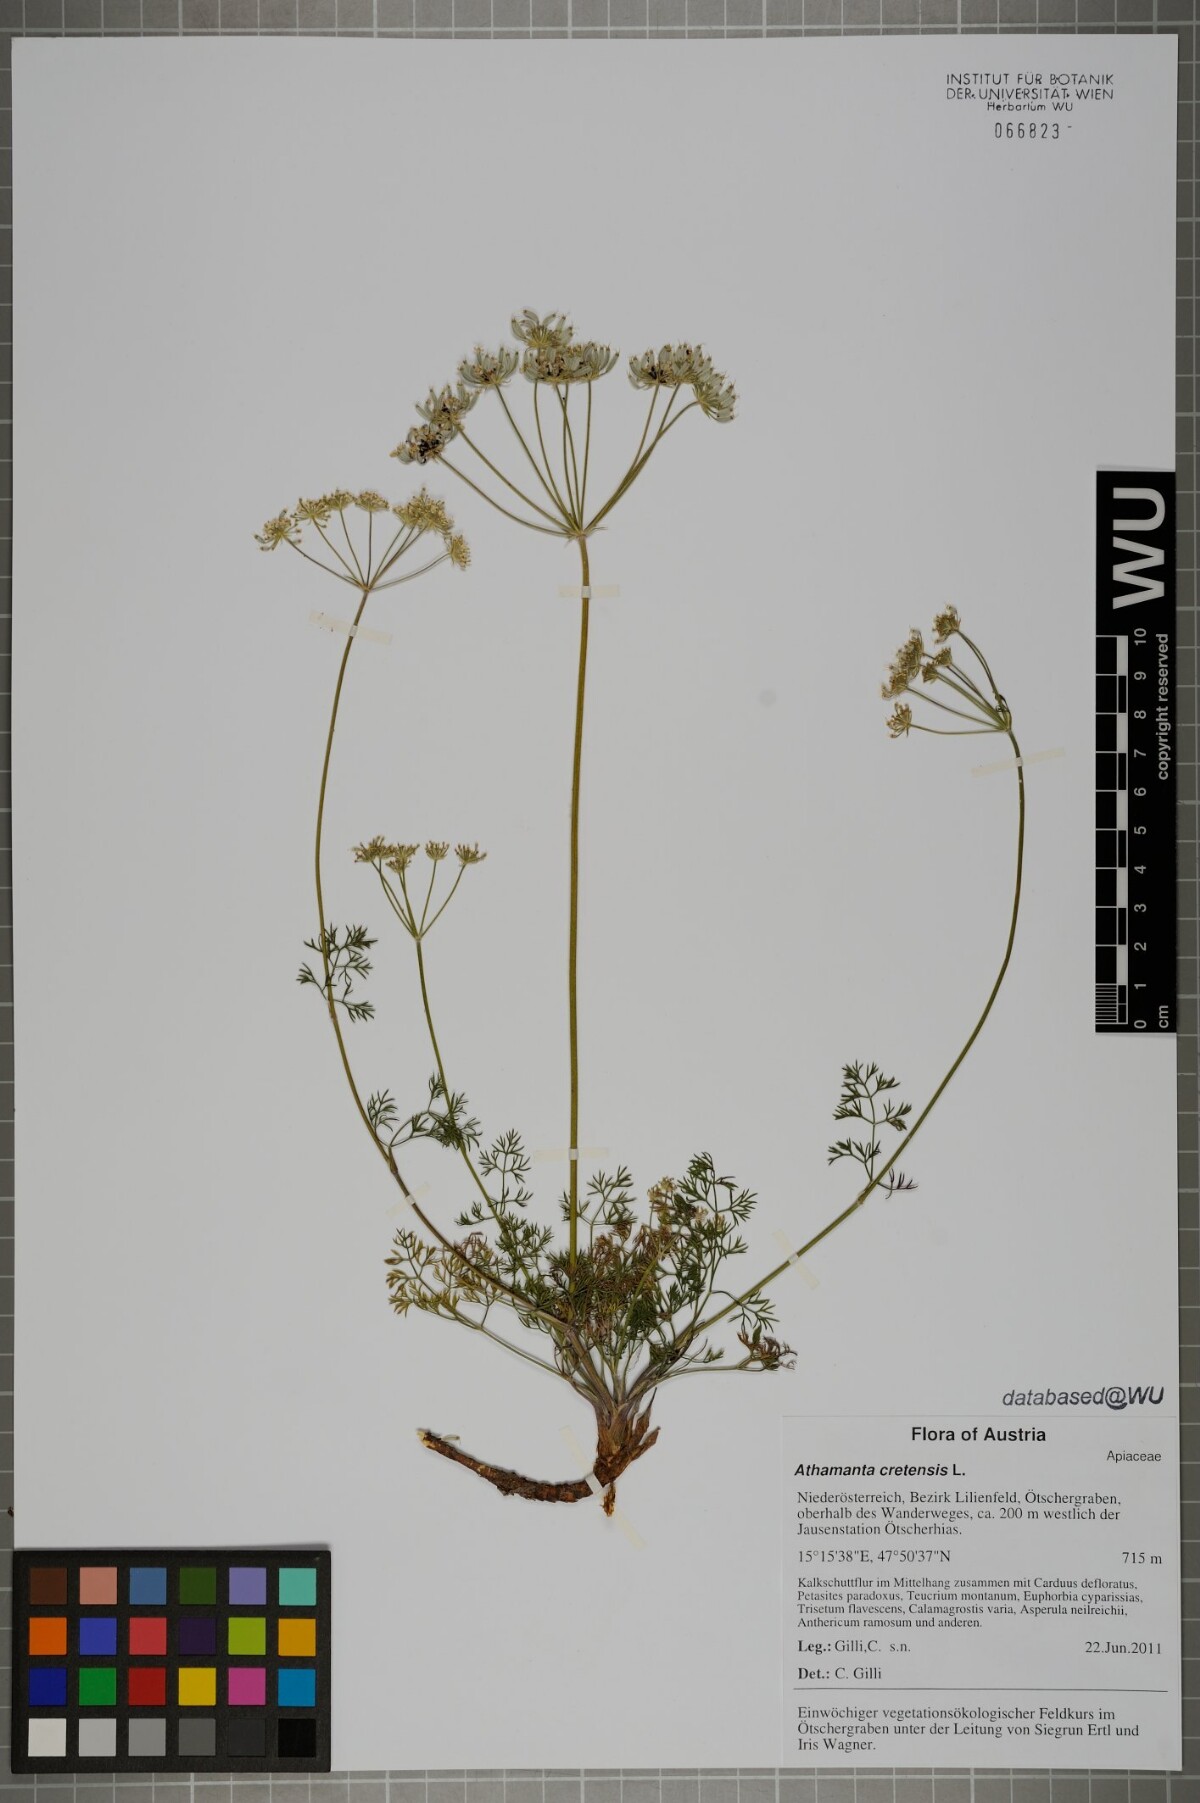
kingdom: Plantae
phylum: Tracheophyta
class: Magnoliopsida
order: Apiales
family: Apiaceae
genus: Athamanta
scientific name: Athamanta cretensis
